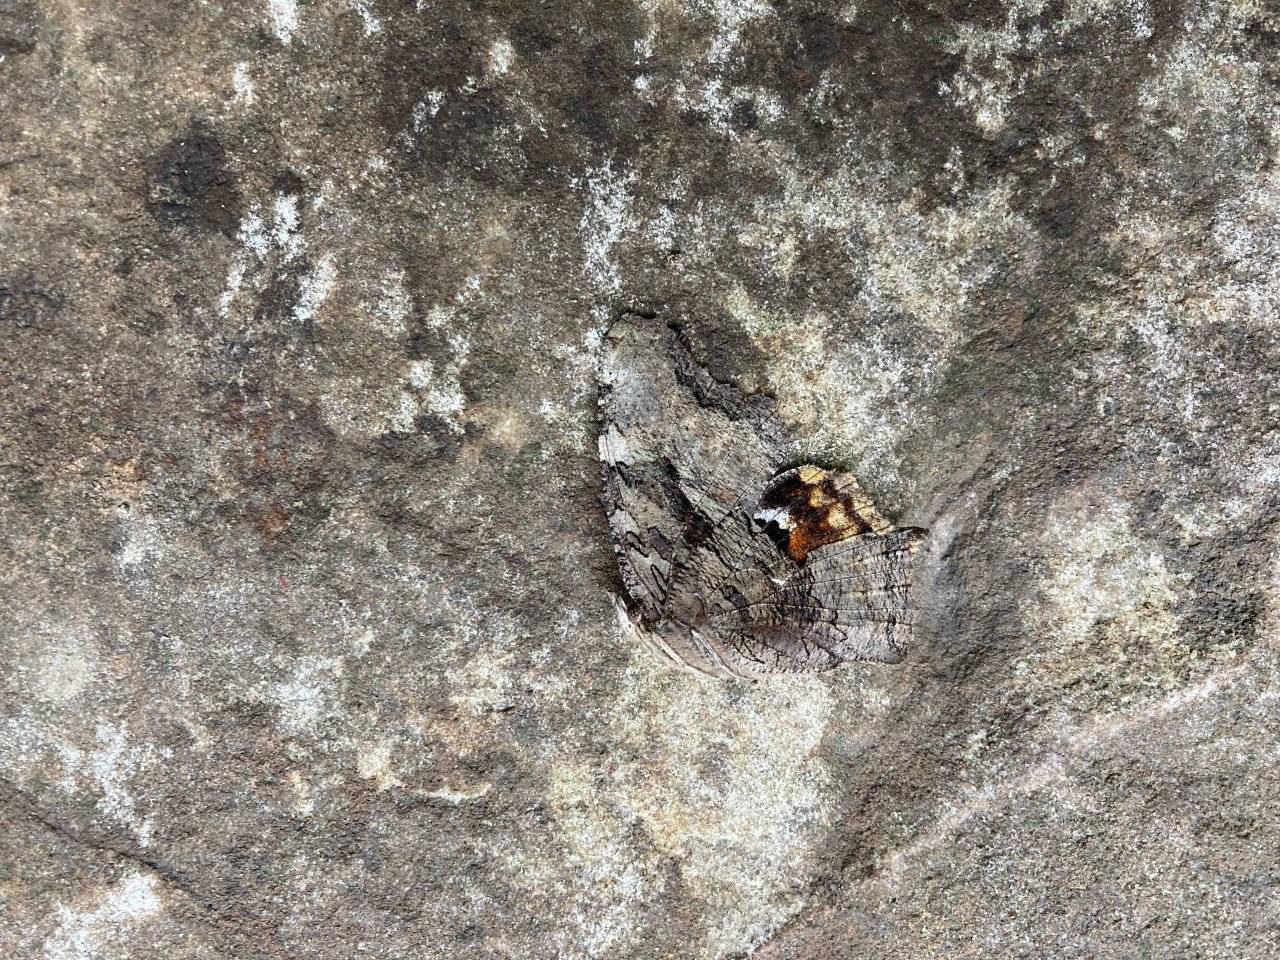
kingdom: Animalia
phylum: Arthropoda
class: Insecta
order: Lepidoptera
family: Nymphalidae
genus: Polygonia
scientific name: Polygonia vaualbum
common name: Compton Tortoiseshell
